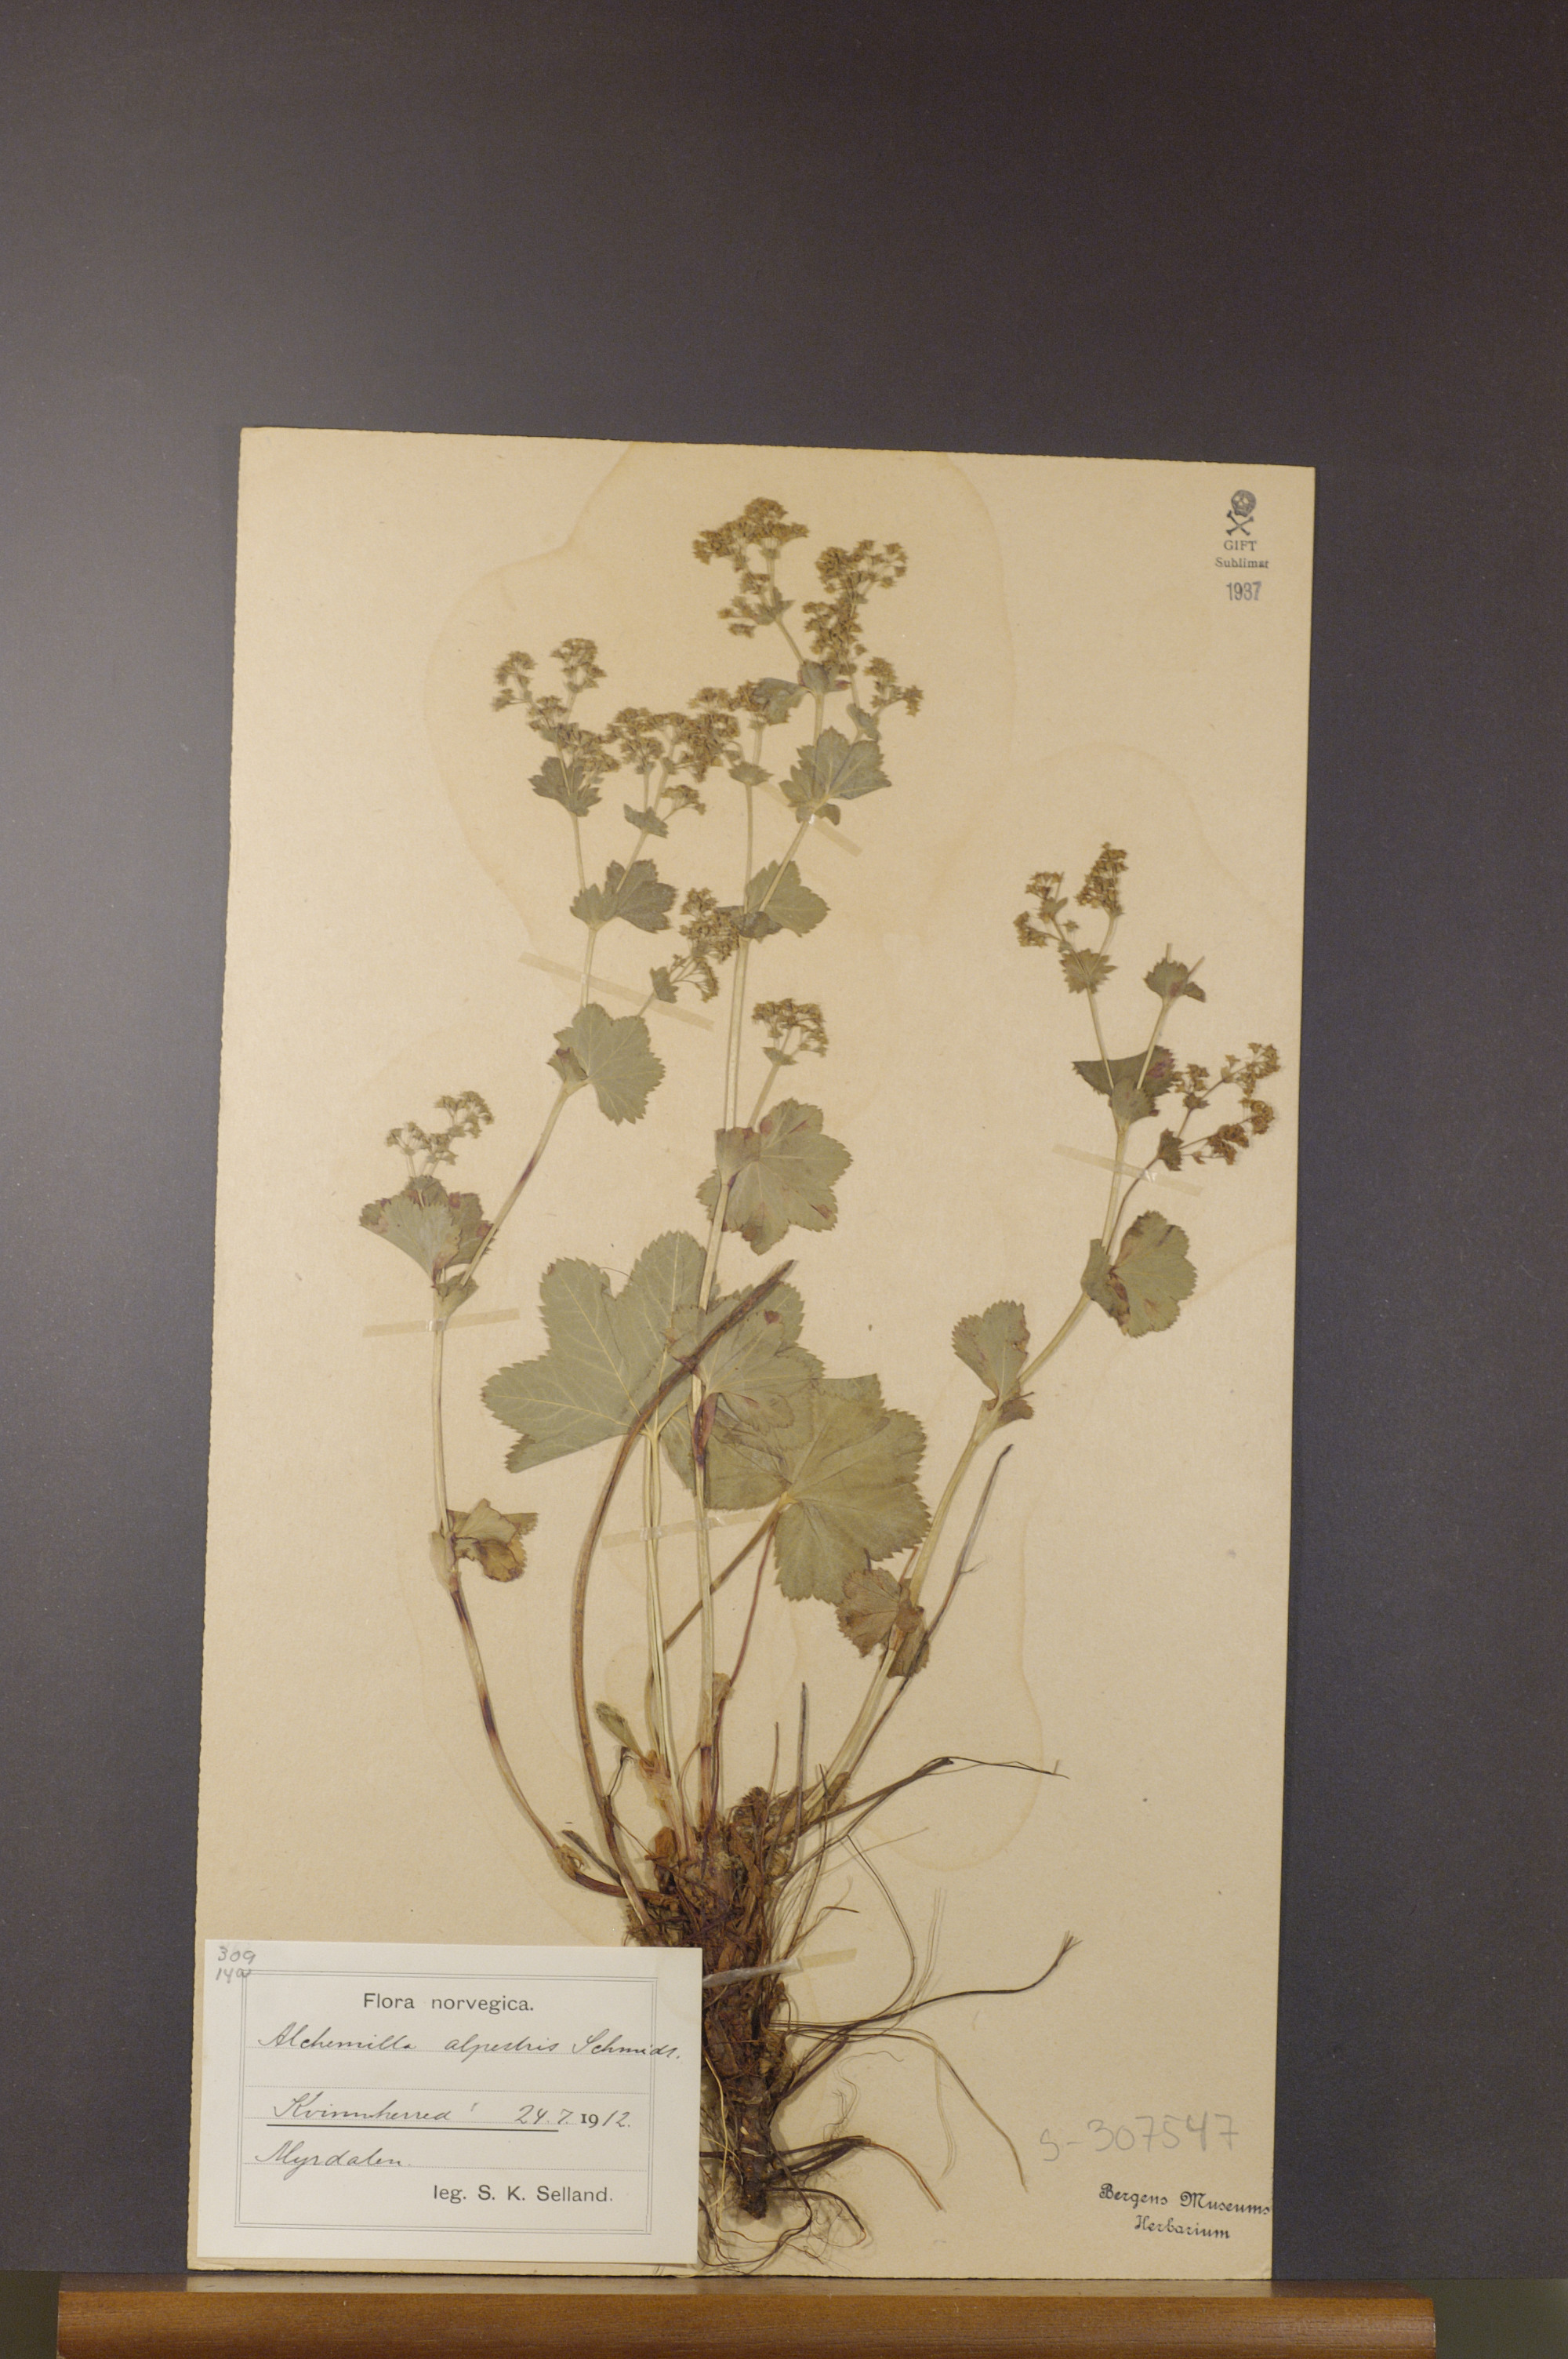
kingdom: Plantae
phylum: Tracheophyta
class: Magnoliopsida
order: Rosales
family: Rosaceae
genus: Alchemilla
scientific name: Alchemilla glabra
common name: Smooth lady's-mantle
